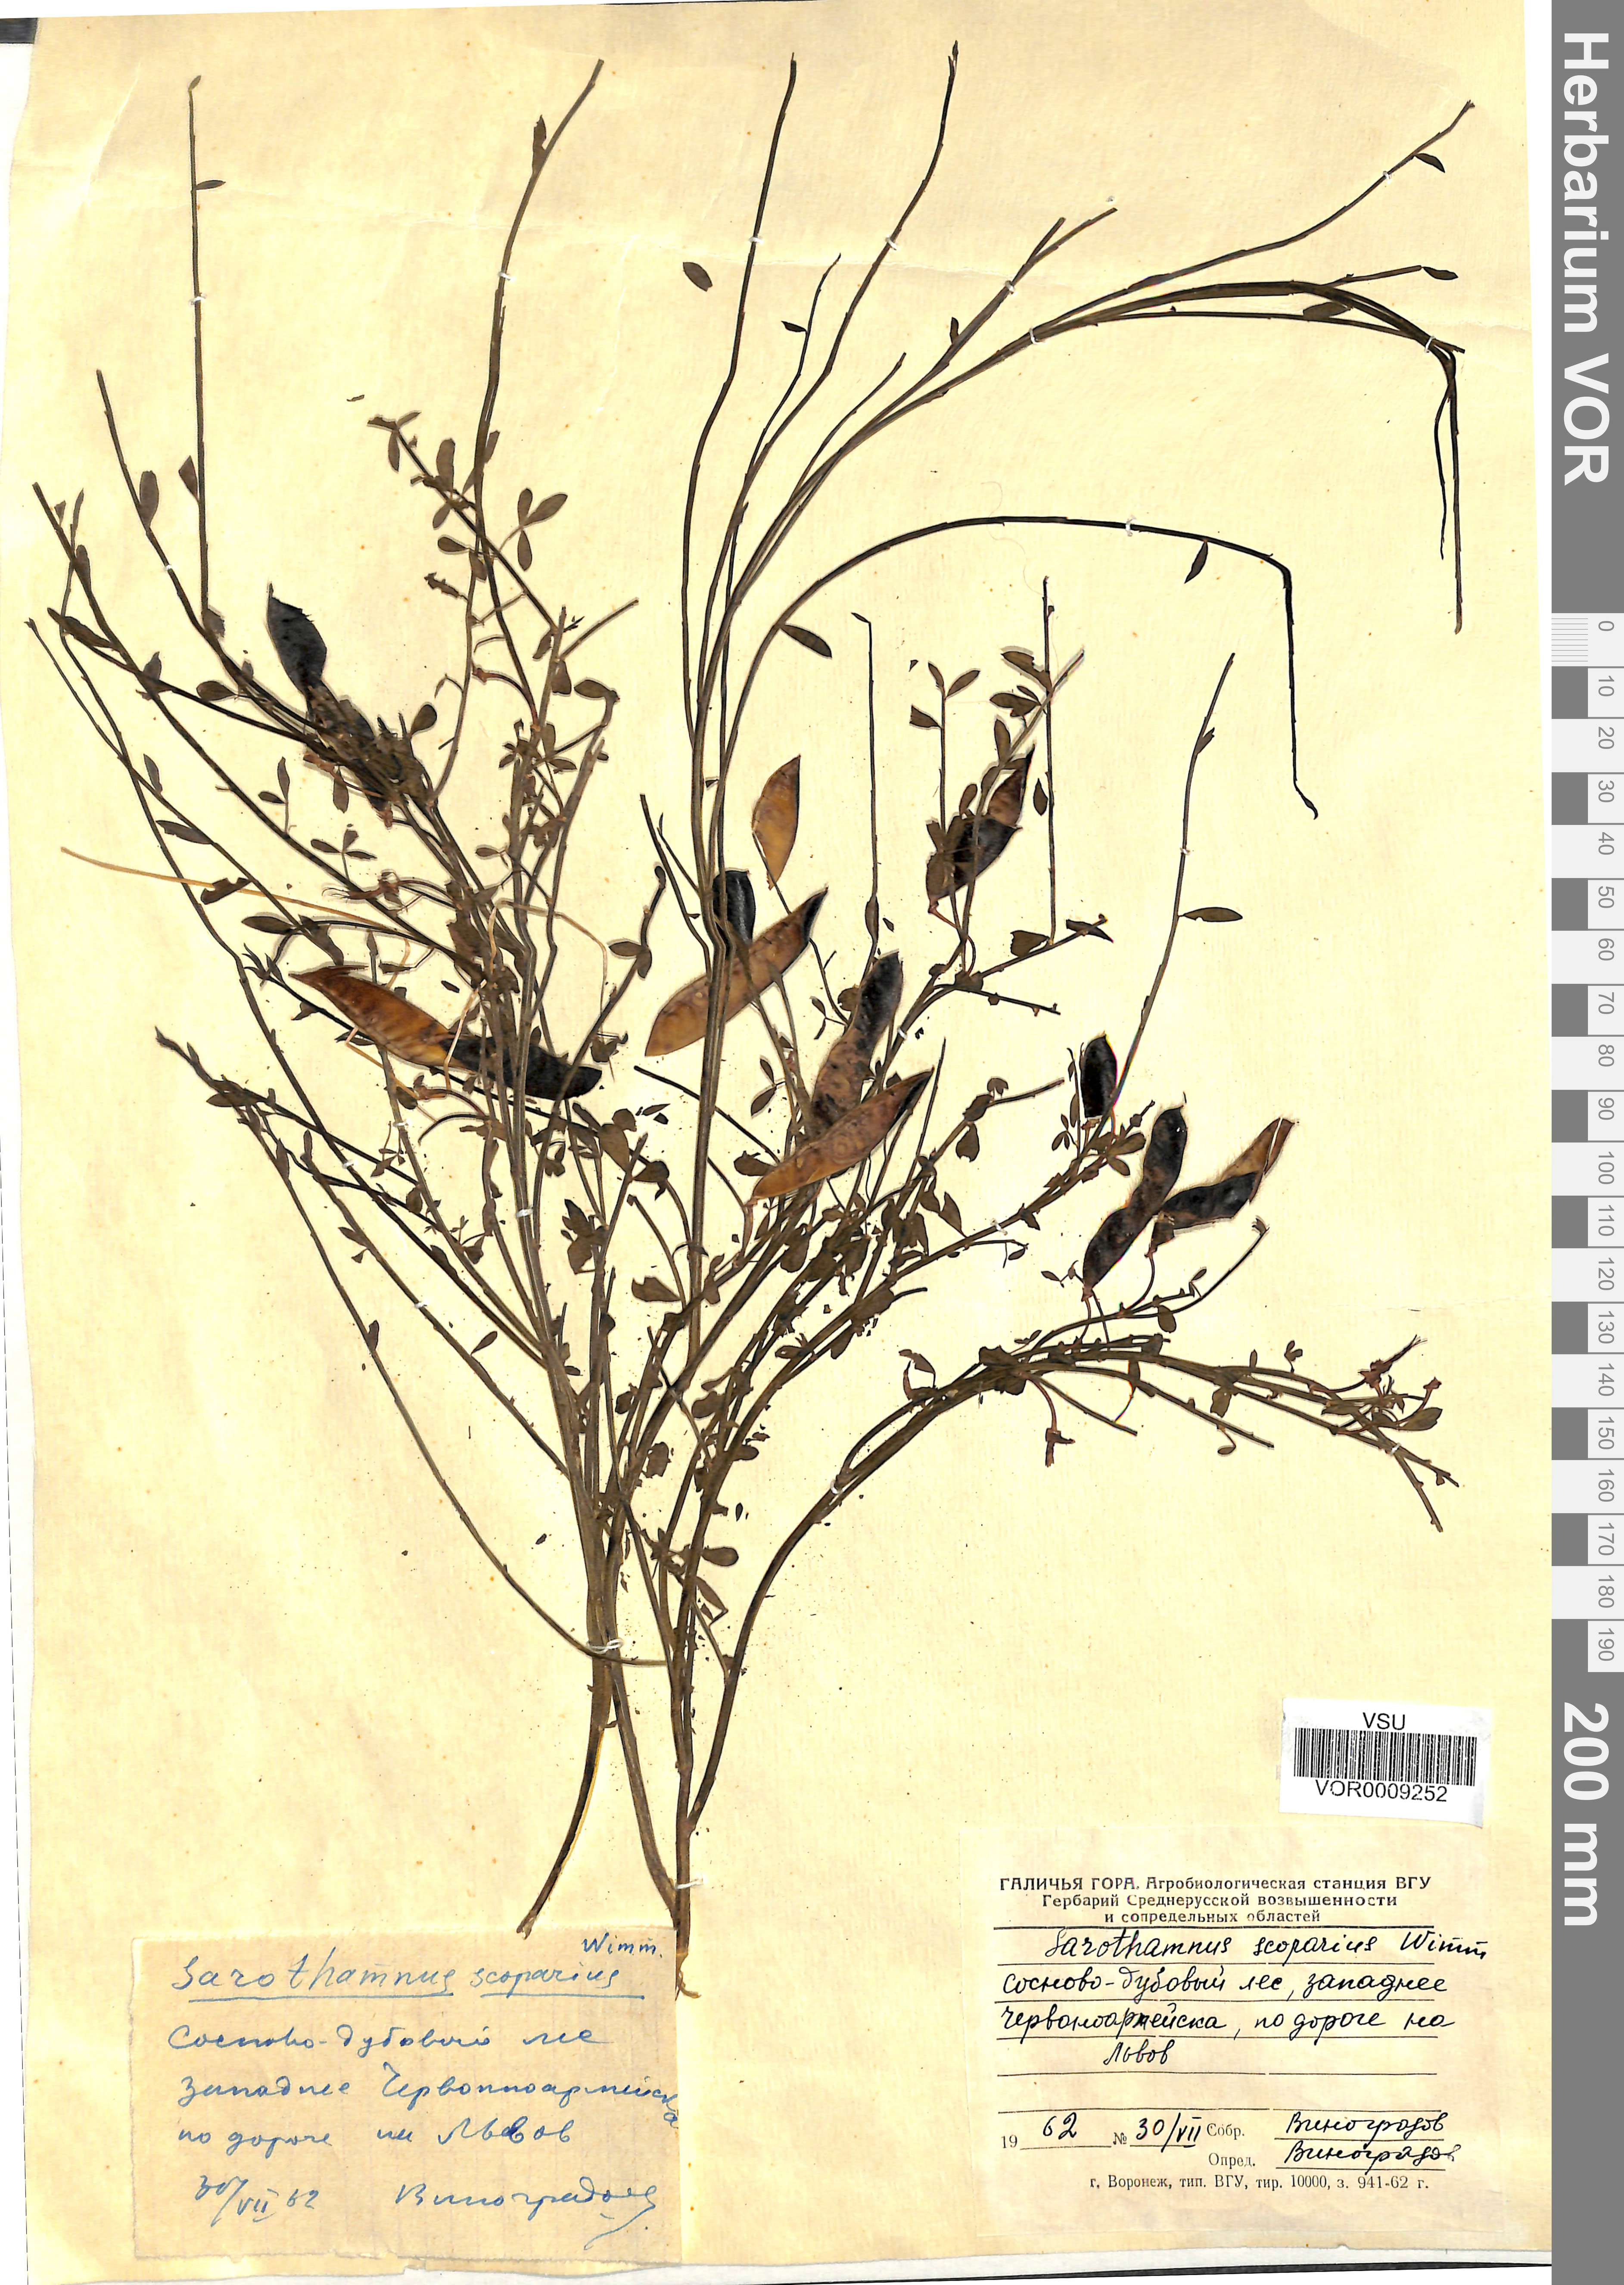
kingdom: Plantae
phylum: Tracheophyta
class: Magnoliopsida
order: Fabales
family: Fabaceae
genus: Cytisus
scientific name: Cytisus scoparius
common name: Scotch broom
